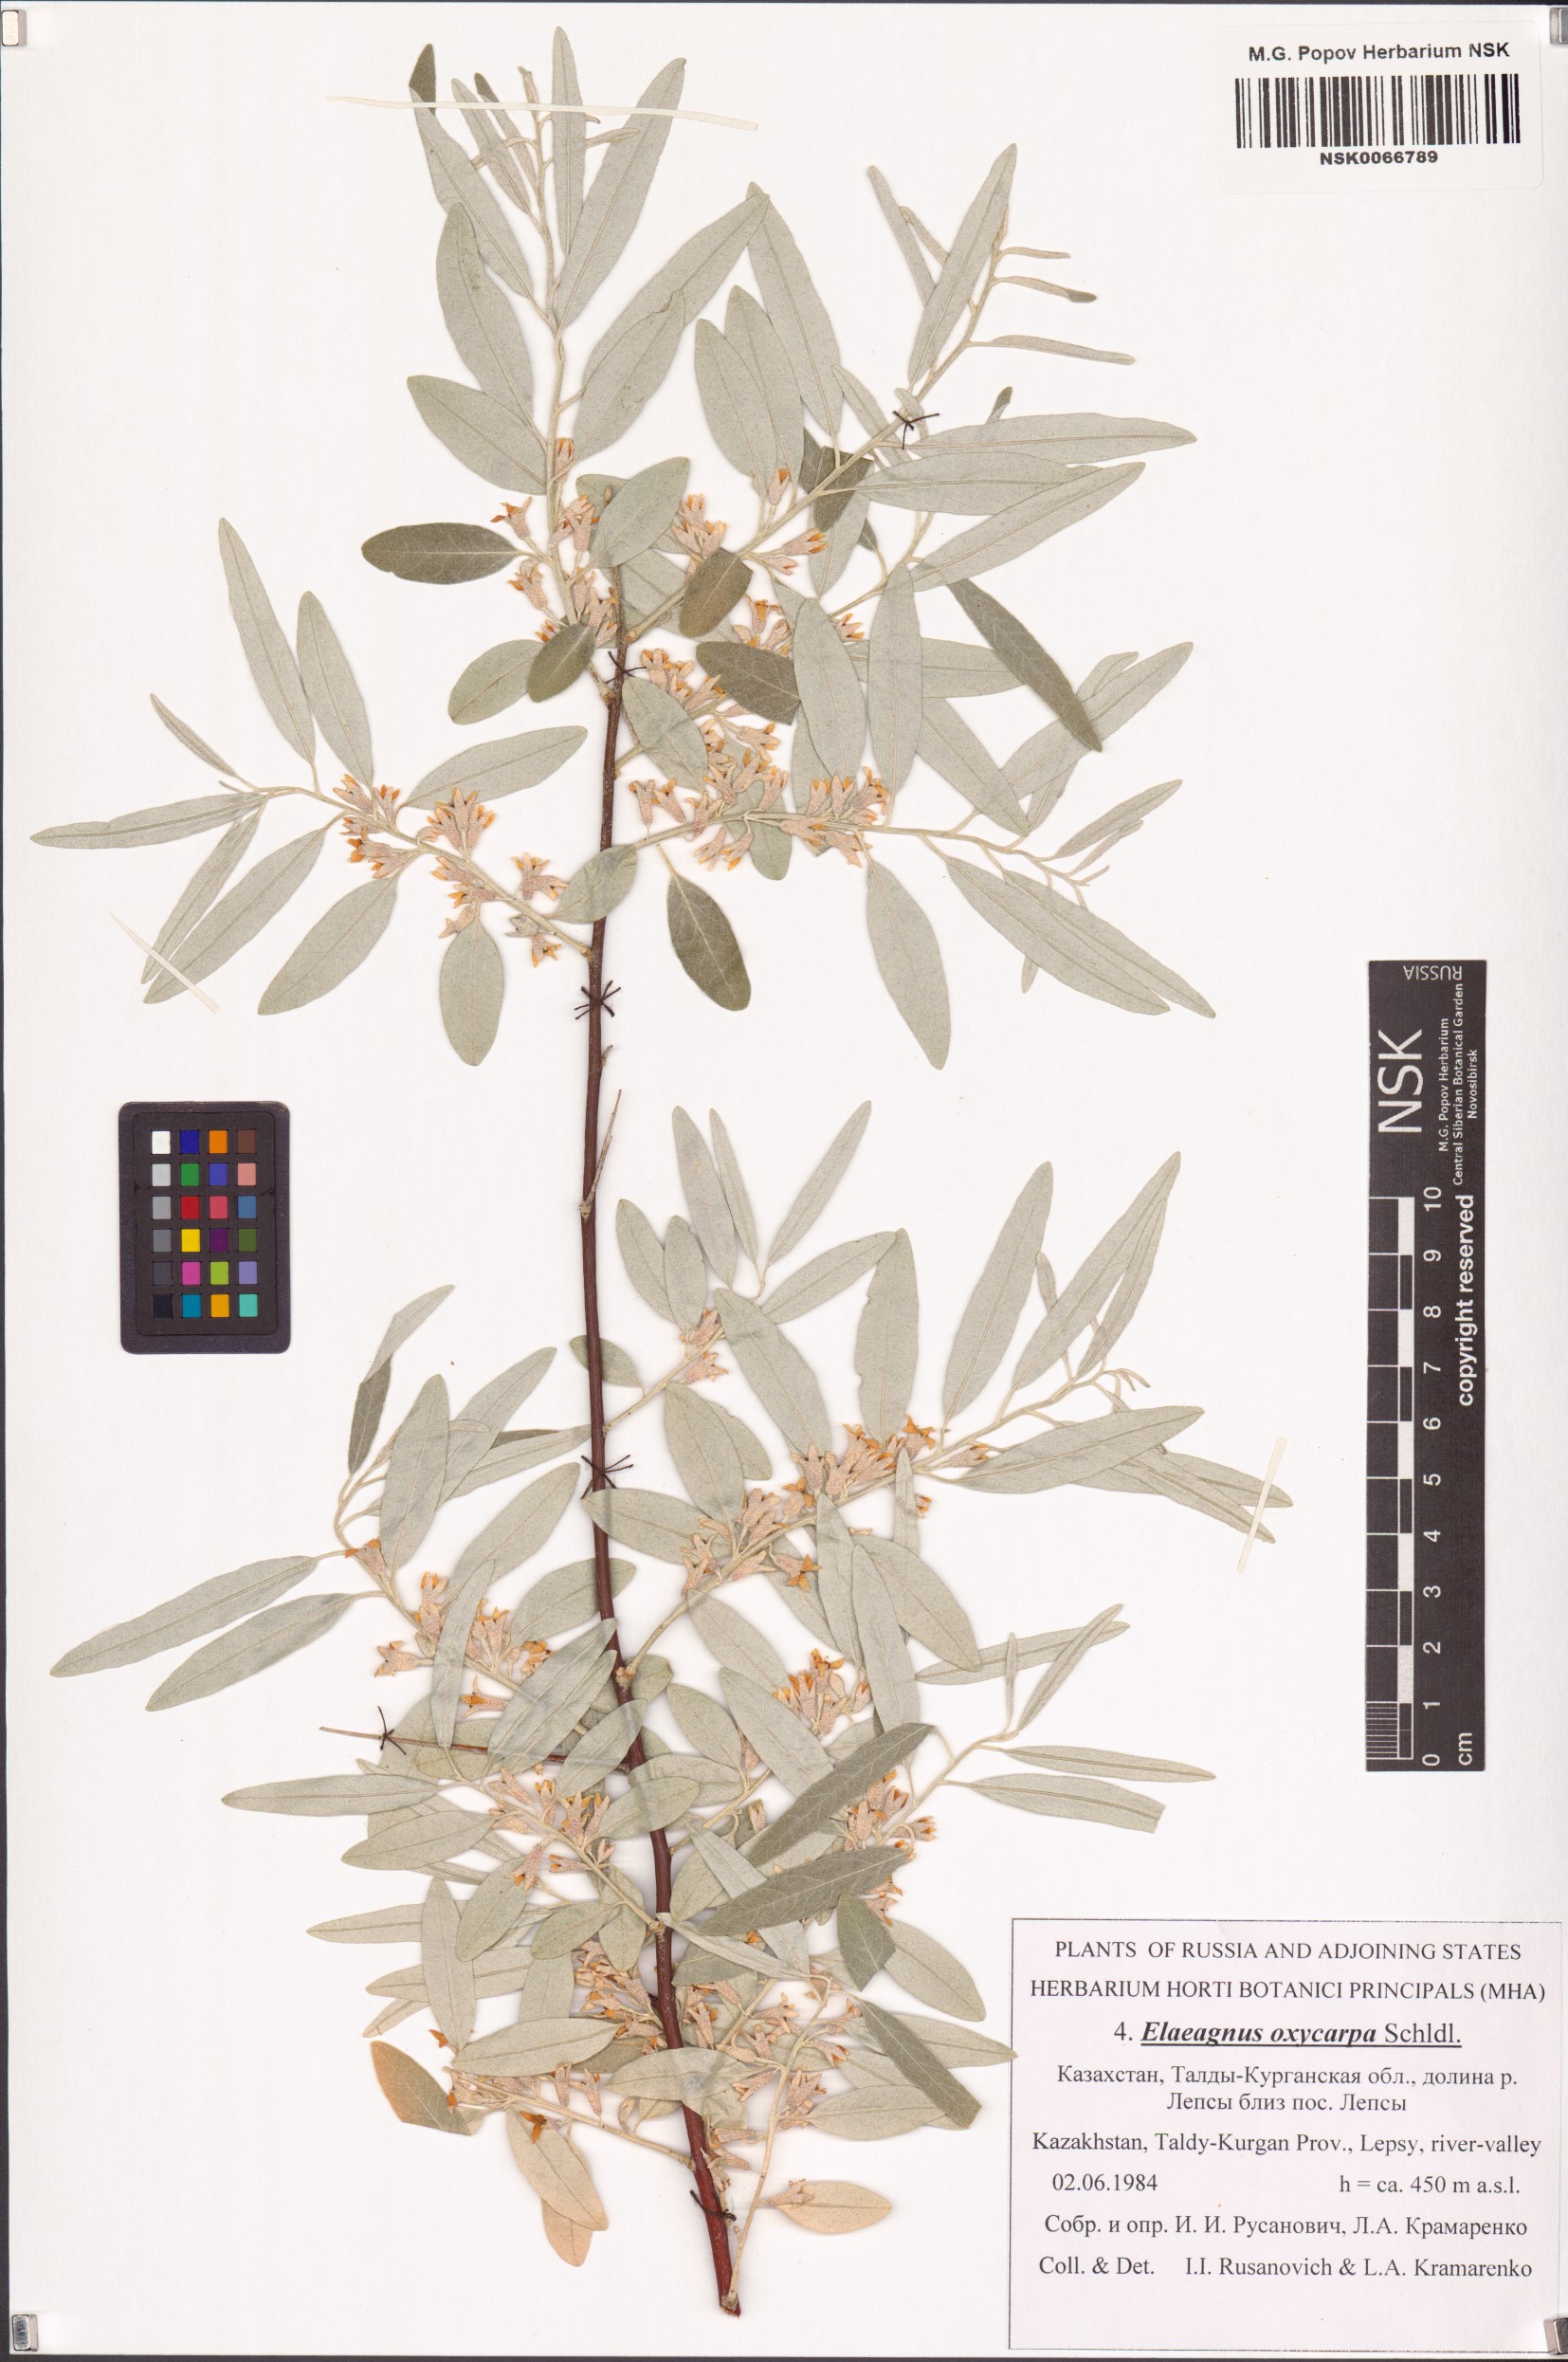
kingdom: Plantae
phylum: Tracheophyta
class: Magnoliopsida
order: Rosales
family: Elaeagnaceae
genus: Elaeagnus
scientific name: Elaeagnus angustifolia
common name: Russian olive
